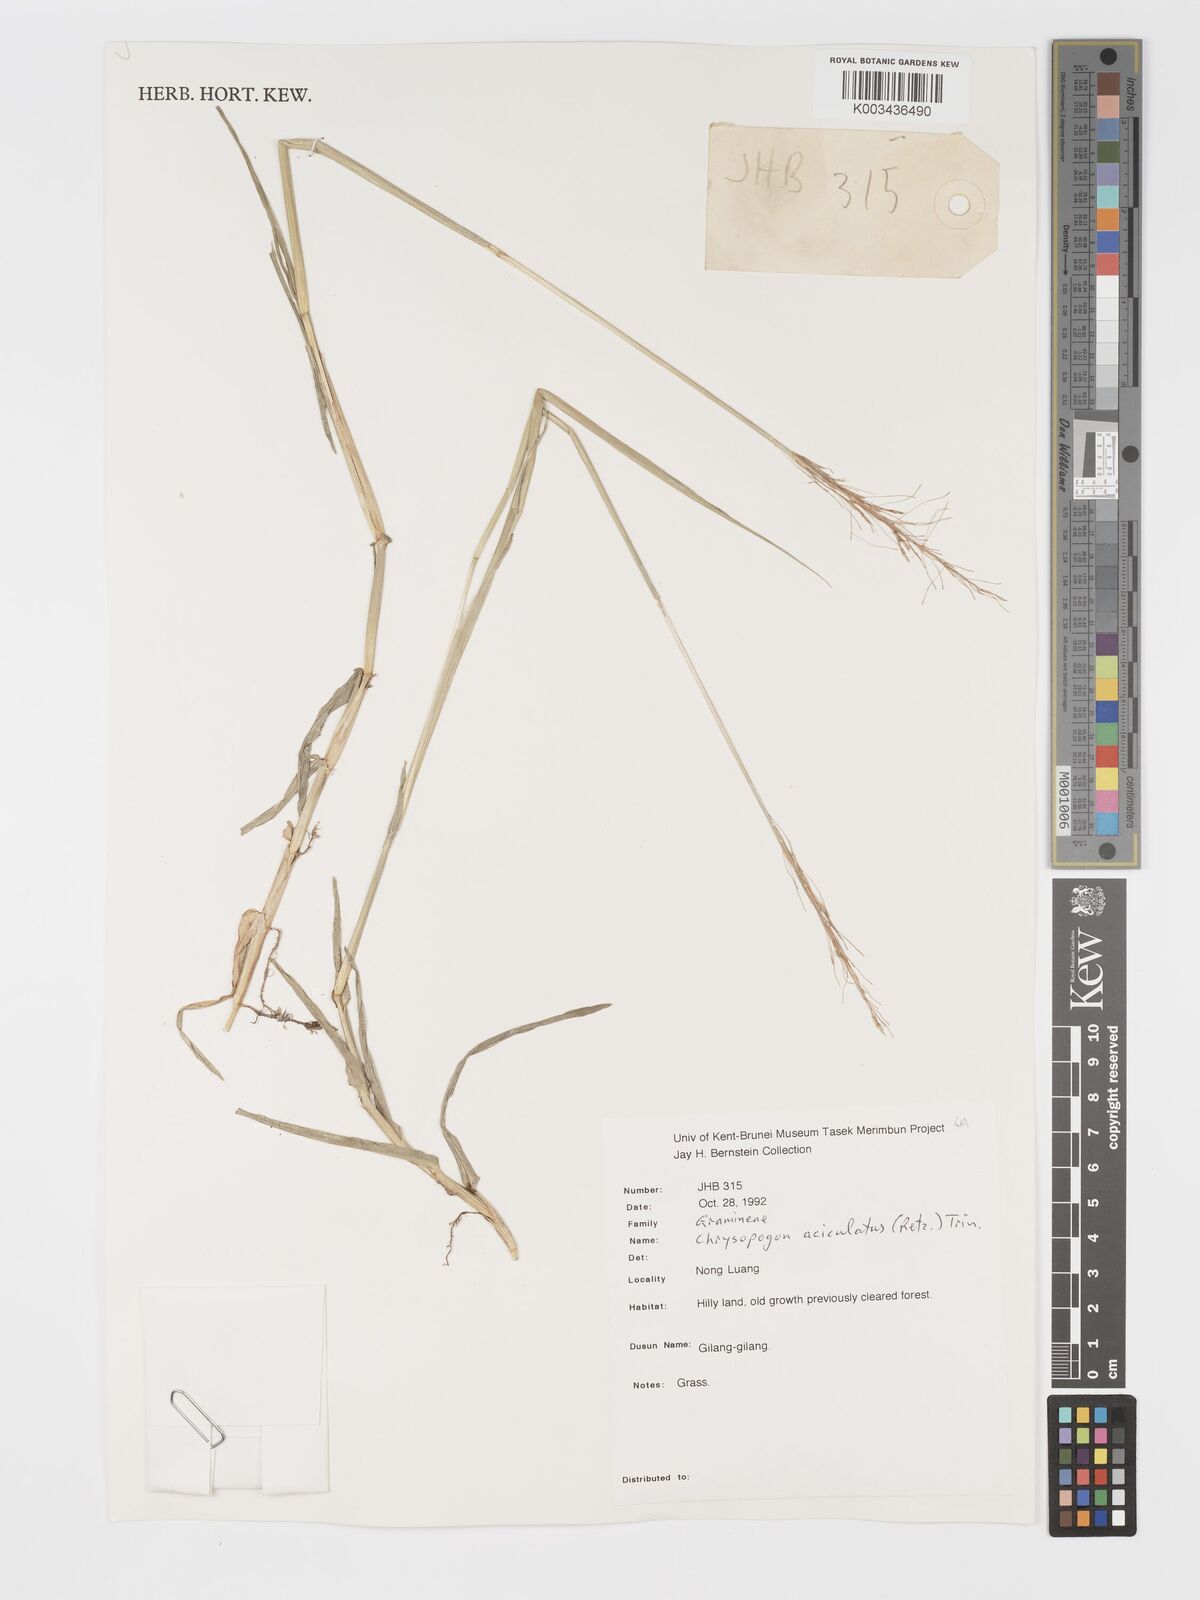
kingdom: Plantae
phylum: Tracheophyta
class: Liliopsida
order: Poales
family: Poaceae
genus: Chrysopogon
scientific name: Chrysopogon aciculatus
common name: Pilipiliula
